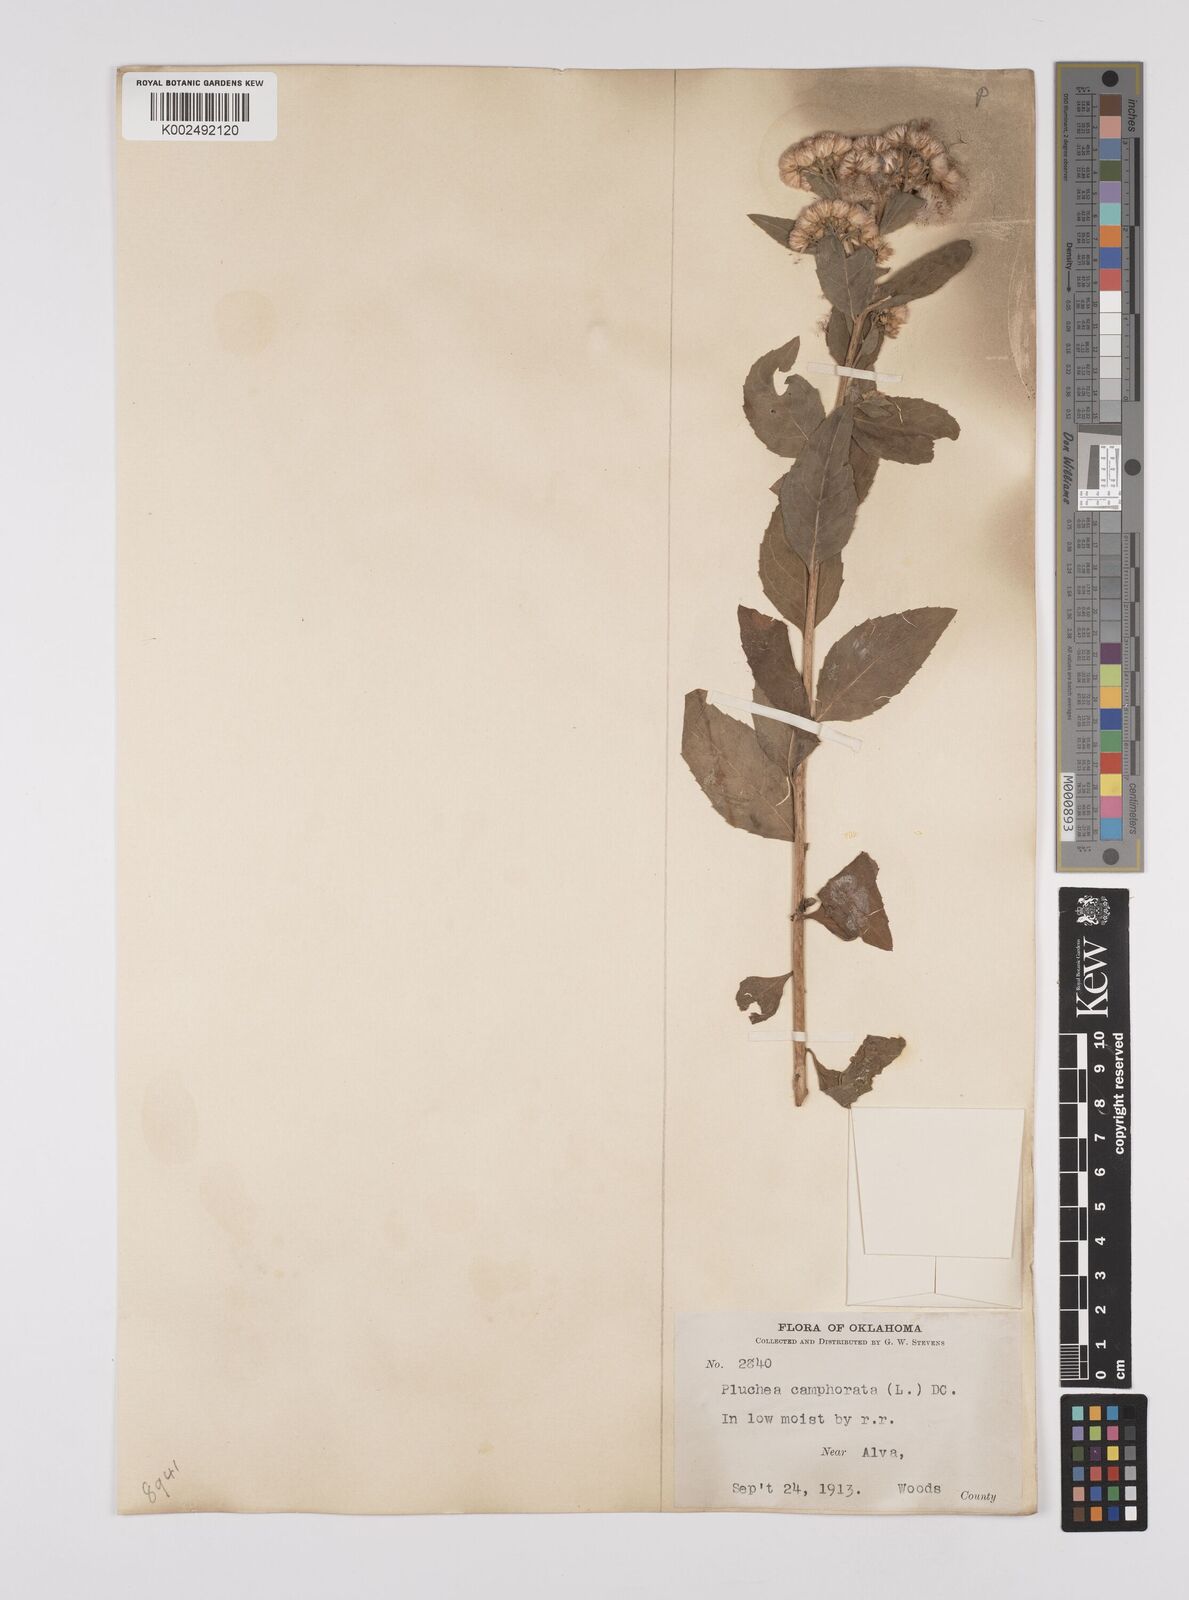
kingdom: Plantae
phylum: Tracheophyta
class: Magnoliopsida
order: Asterales
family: Asteraceae
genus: Pluchea
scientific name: Pluchea camphorata
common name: Camphor pluchea
